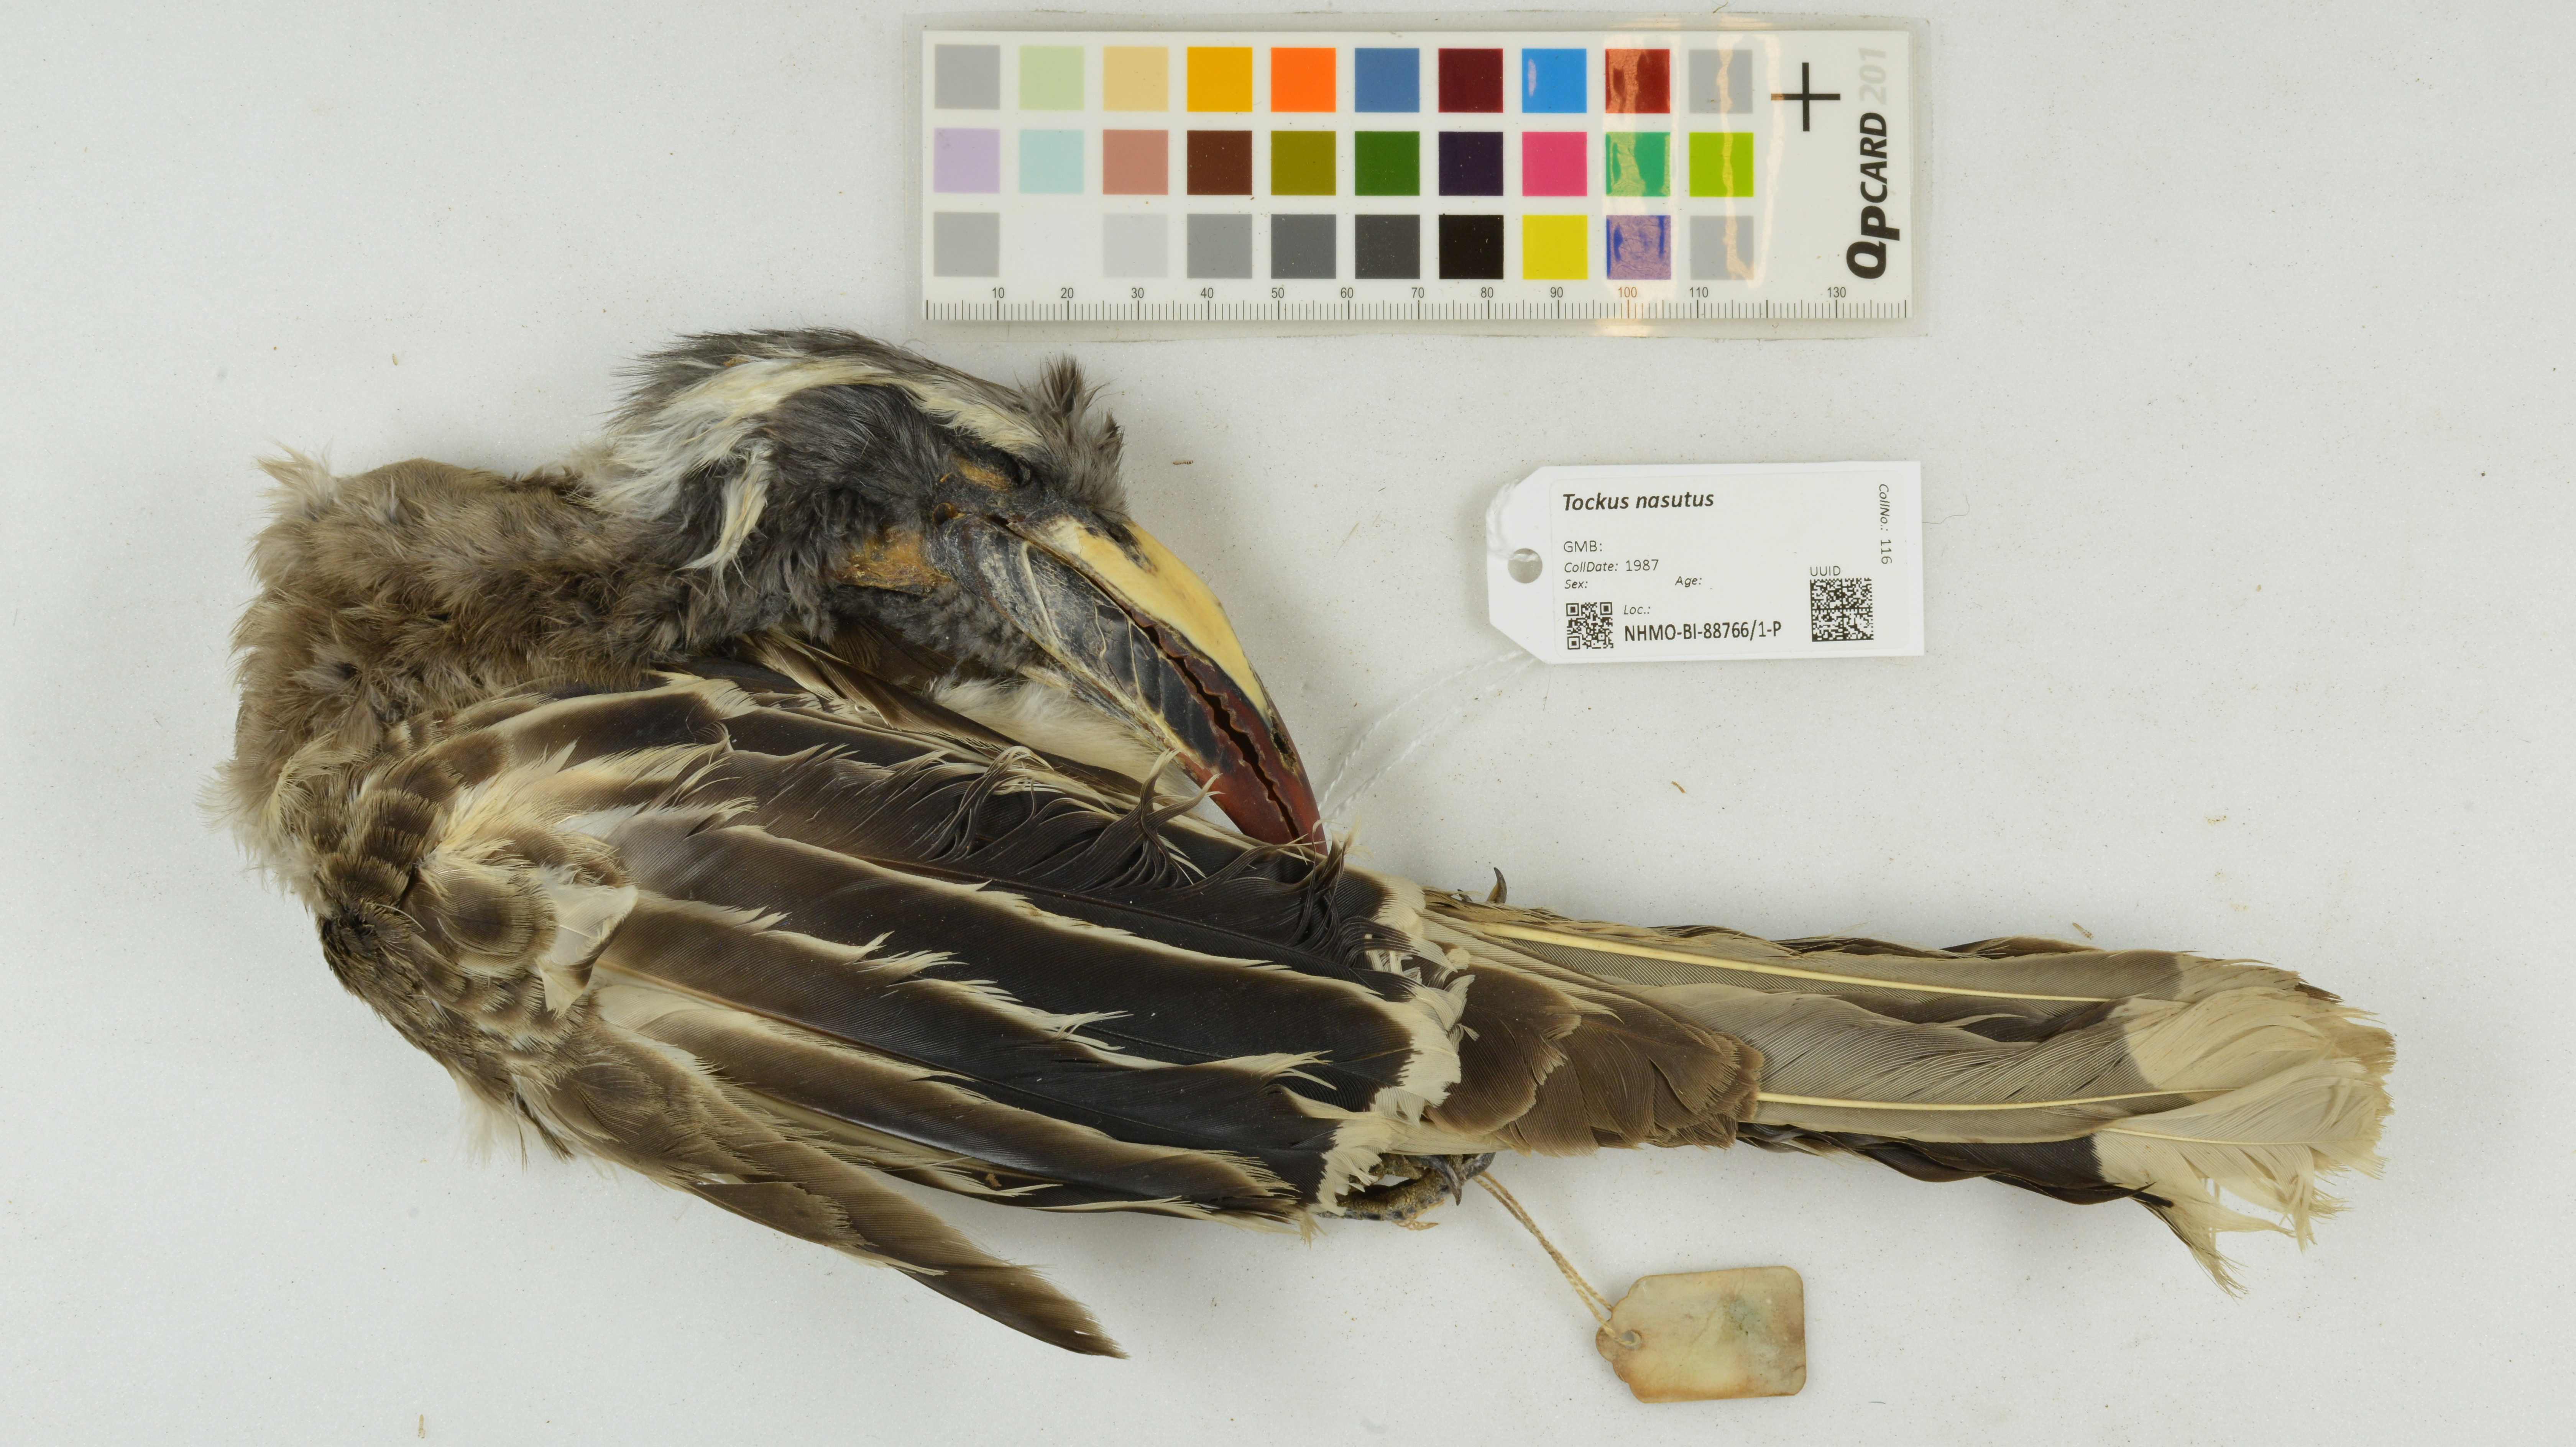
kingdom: Animalia
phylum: Chordata
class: Aves
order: Bucerotiformes
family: Bucerotidae
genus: Lophoceros
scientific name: Lophoceros nasutus
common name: African grey hornbill
